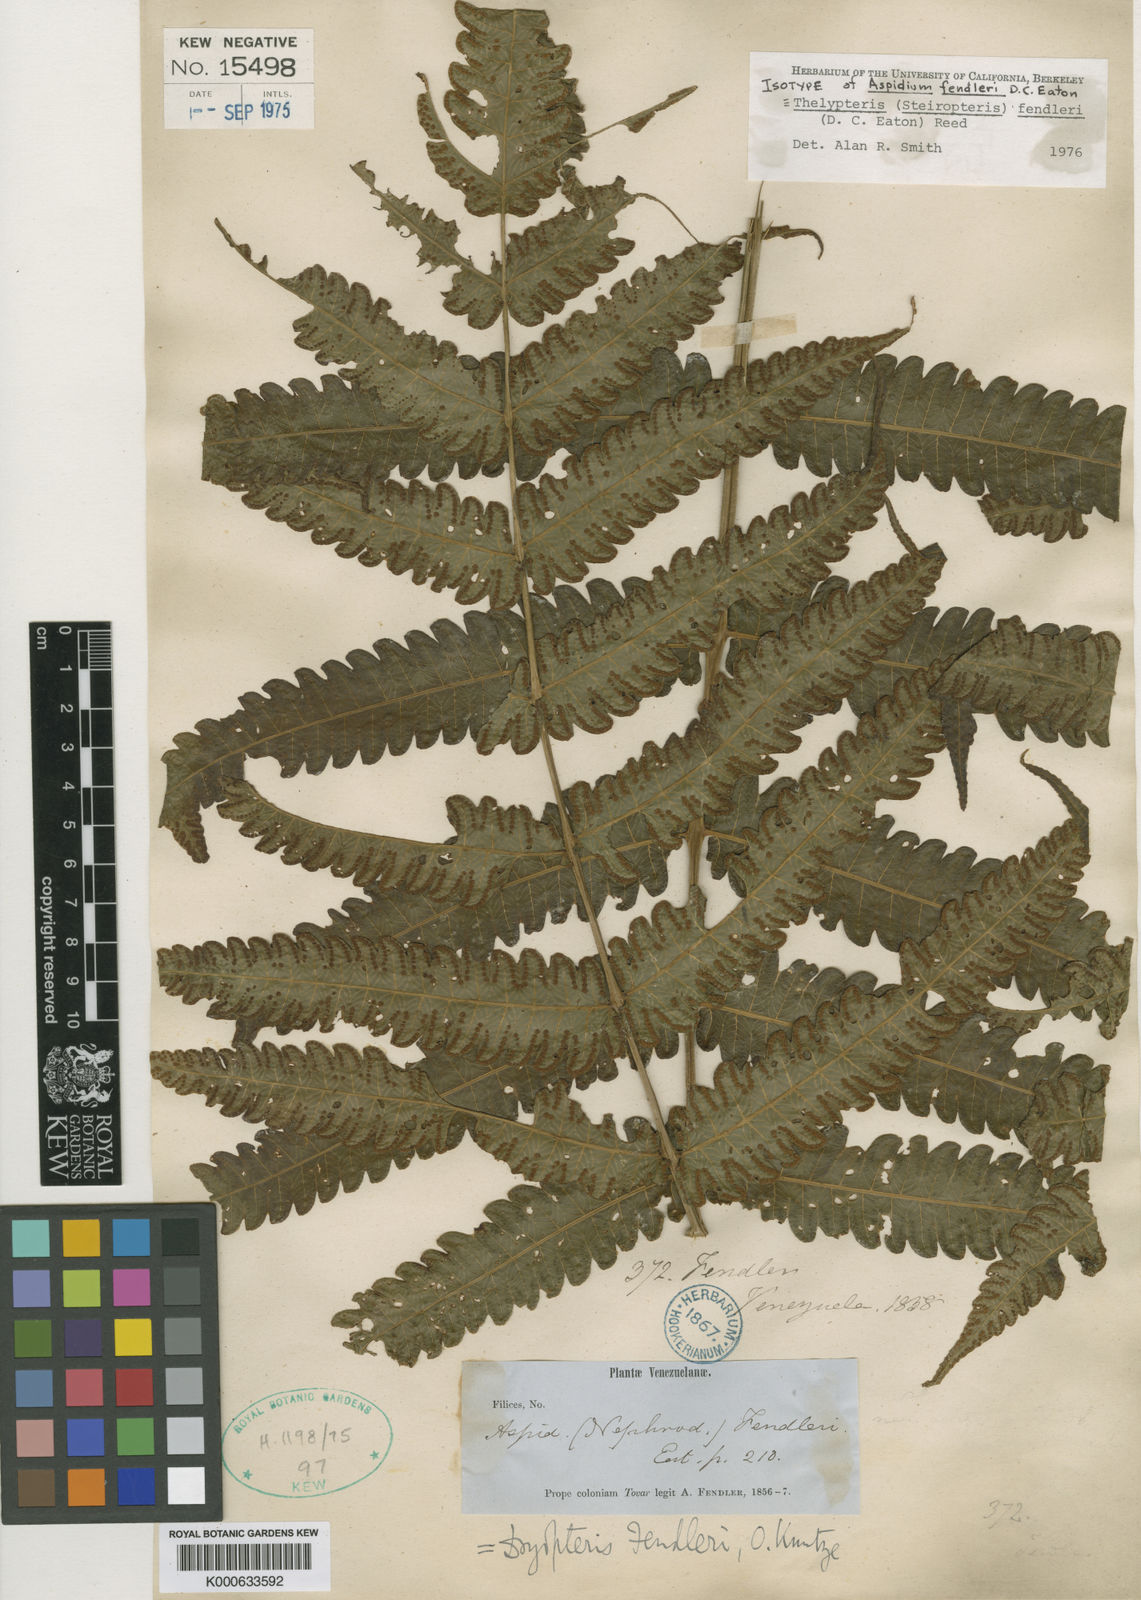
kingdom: Plantae
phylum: Tracheophyta
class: Polypodiopsida
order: Polypodiales
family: Thelypteridaceae
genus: Steiropteris
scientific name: Steiropteris fendleri
